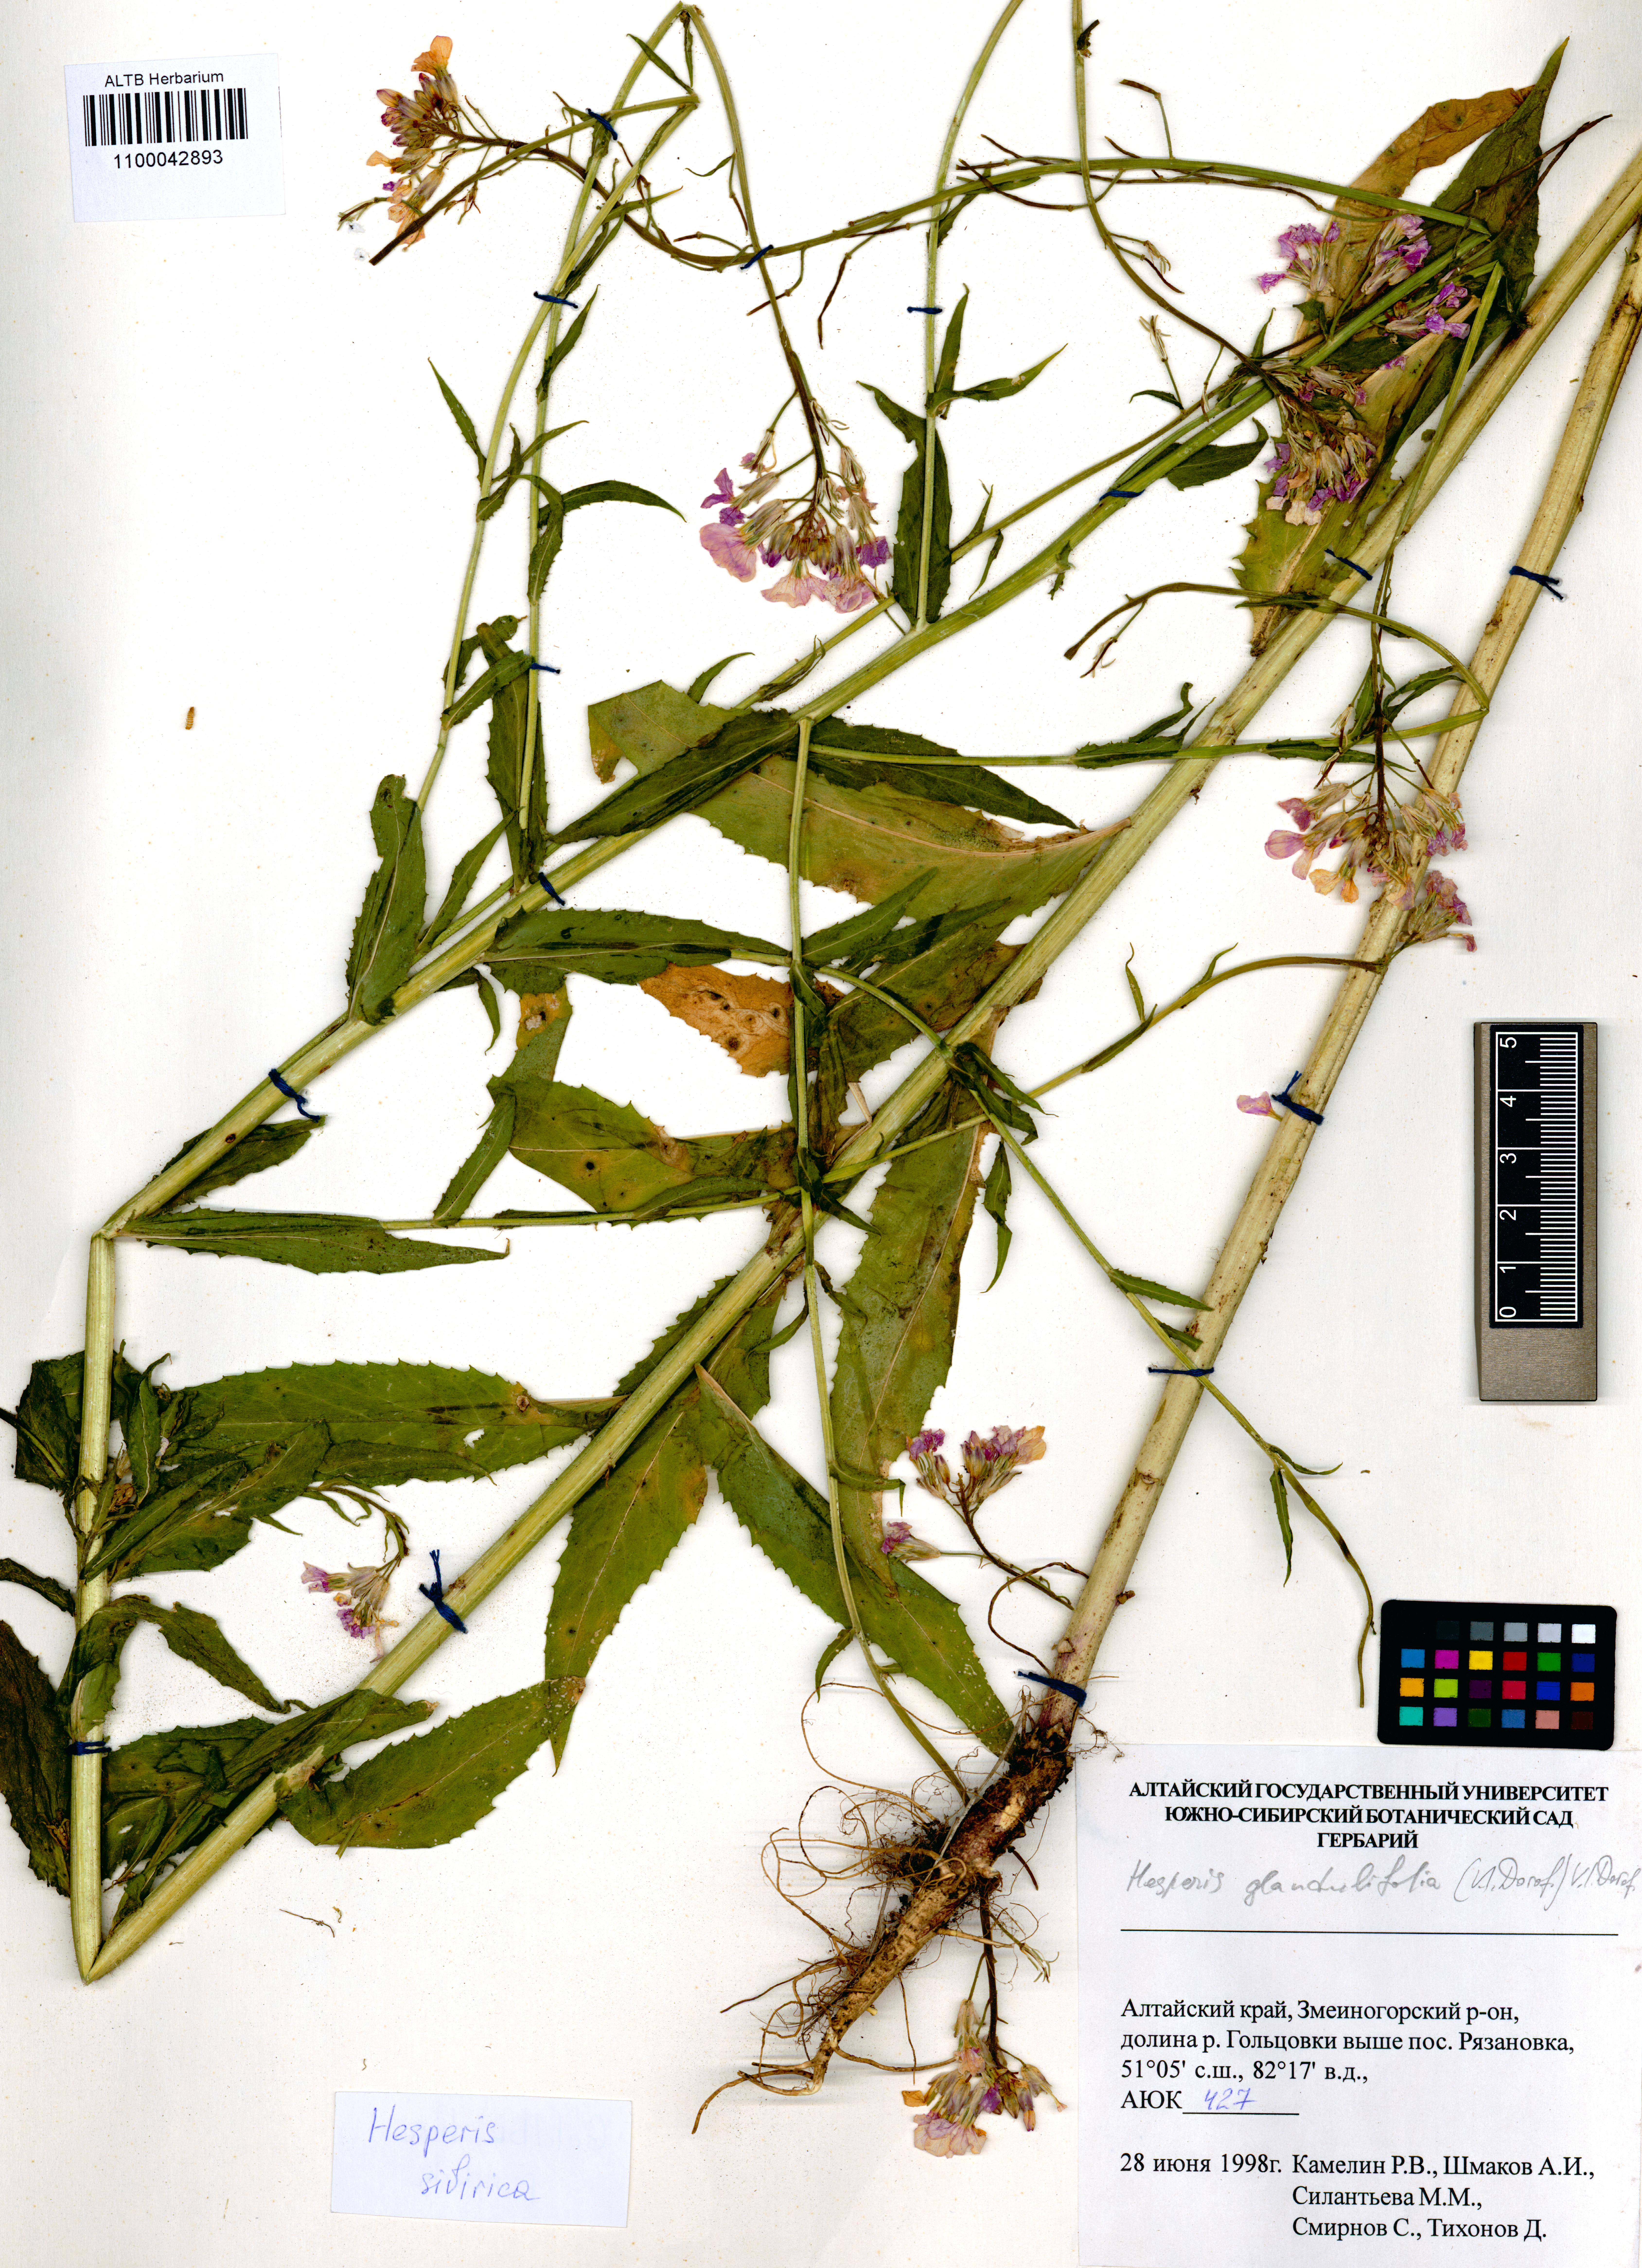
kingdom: Plantae
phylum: Tracheophyta
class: Magnoliopsida
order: Brassicales
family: Brassicaceae
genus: Hesperis
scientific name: Hesperis sibirica
